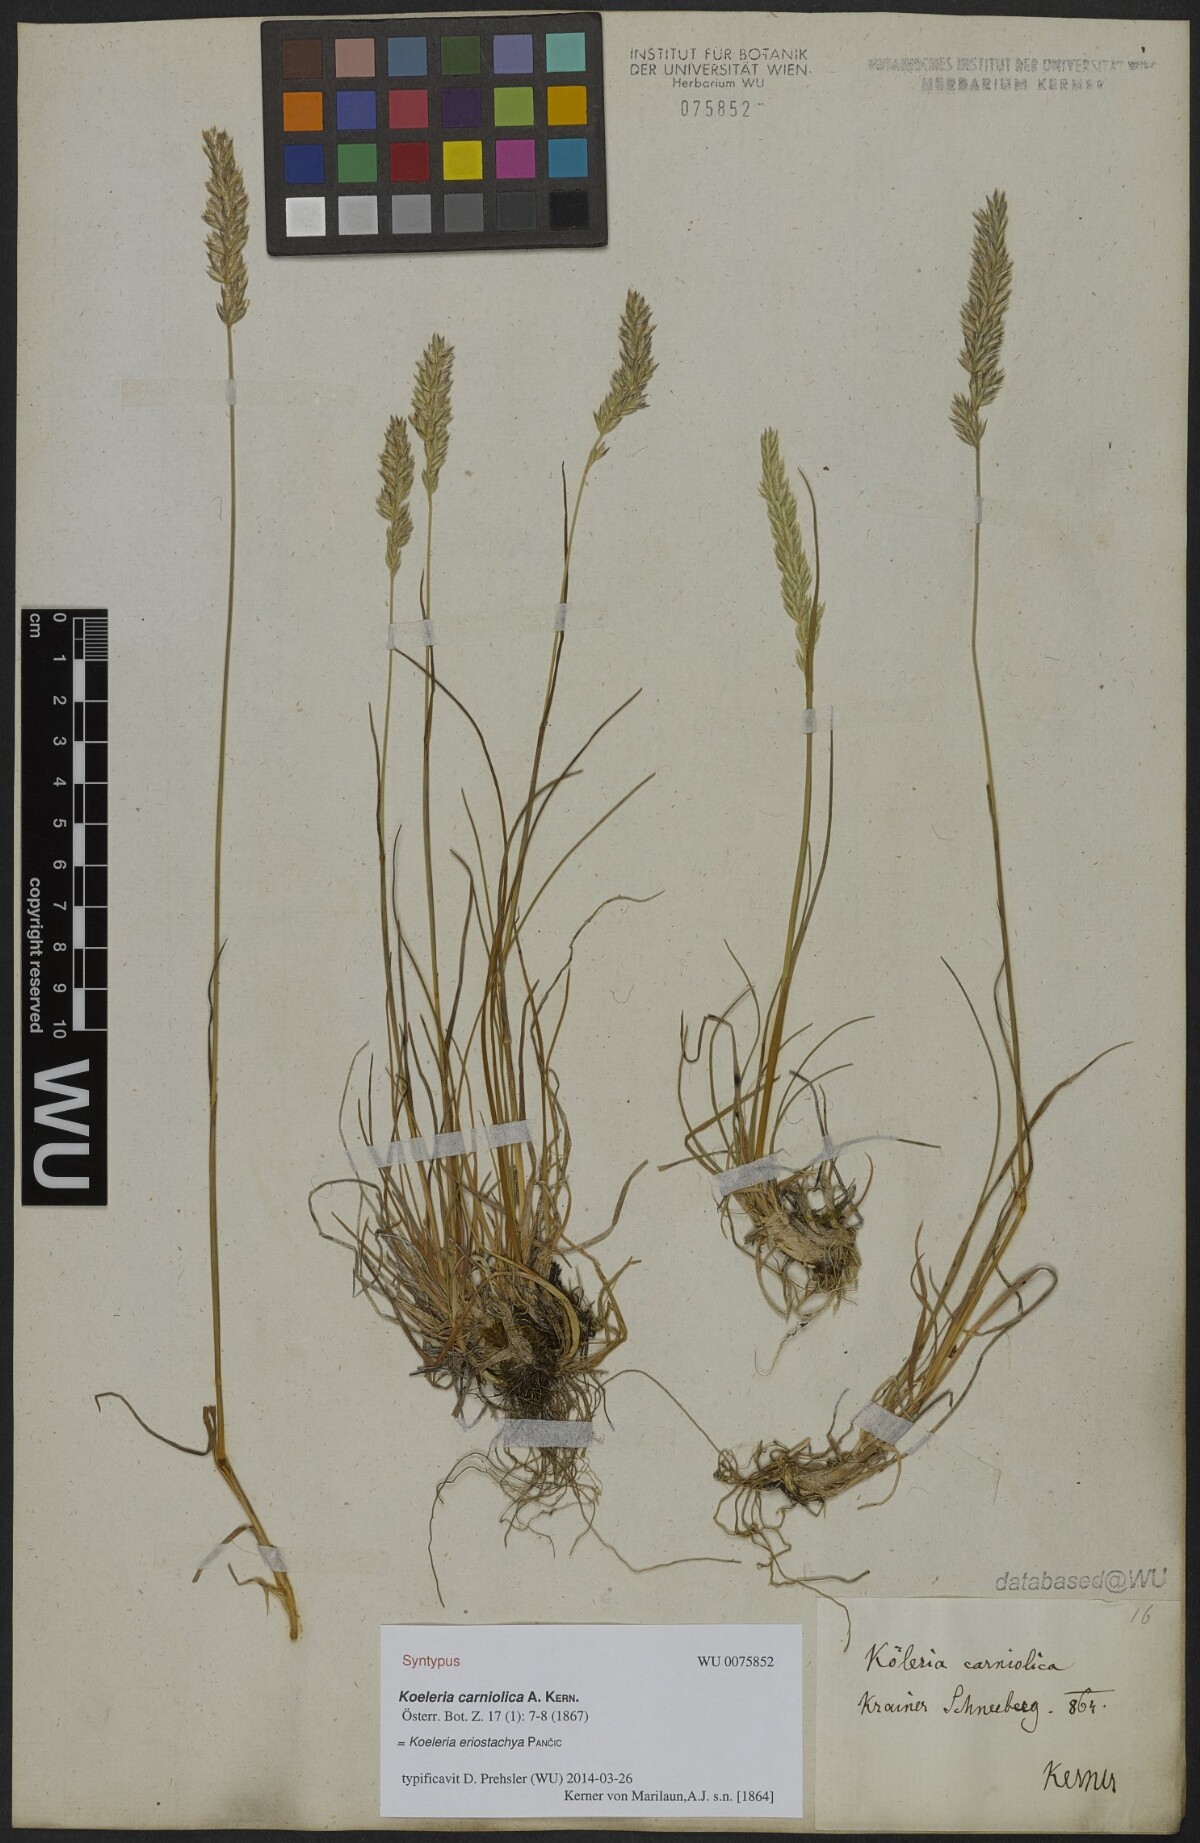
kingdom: Plantae
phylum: Tracheophyta
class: Liliopsida
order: Poales
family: Poaceae
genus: Koeleria
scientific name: Koeleria eriostachya
